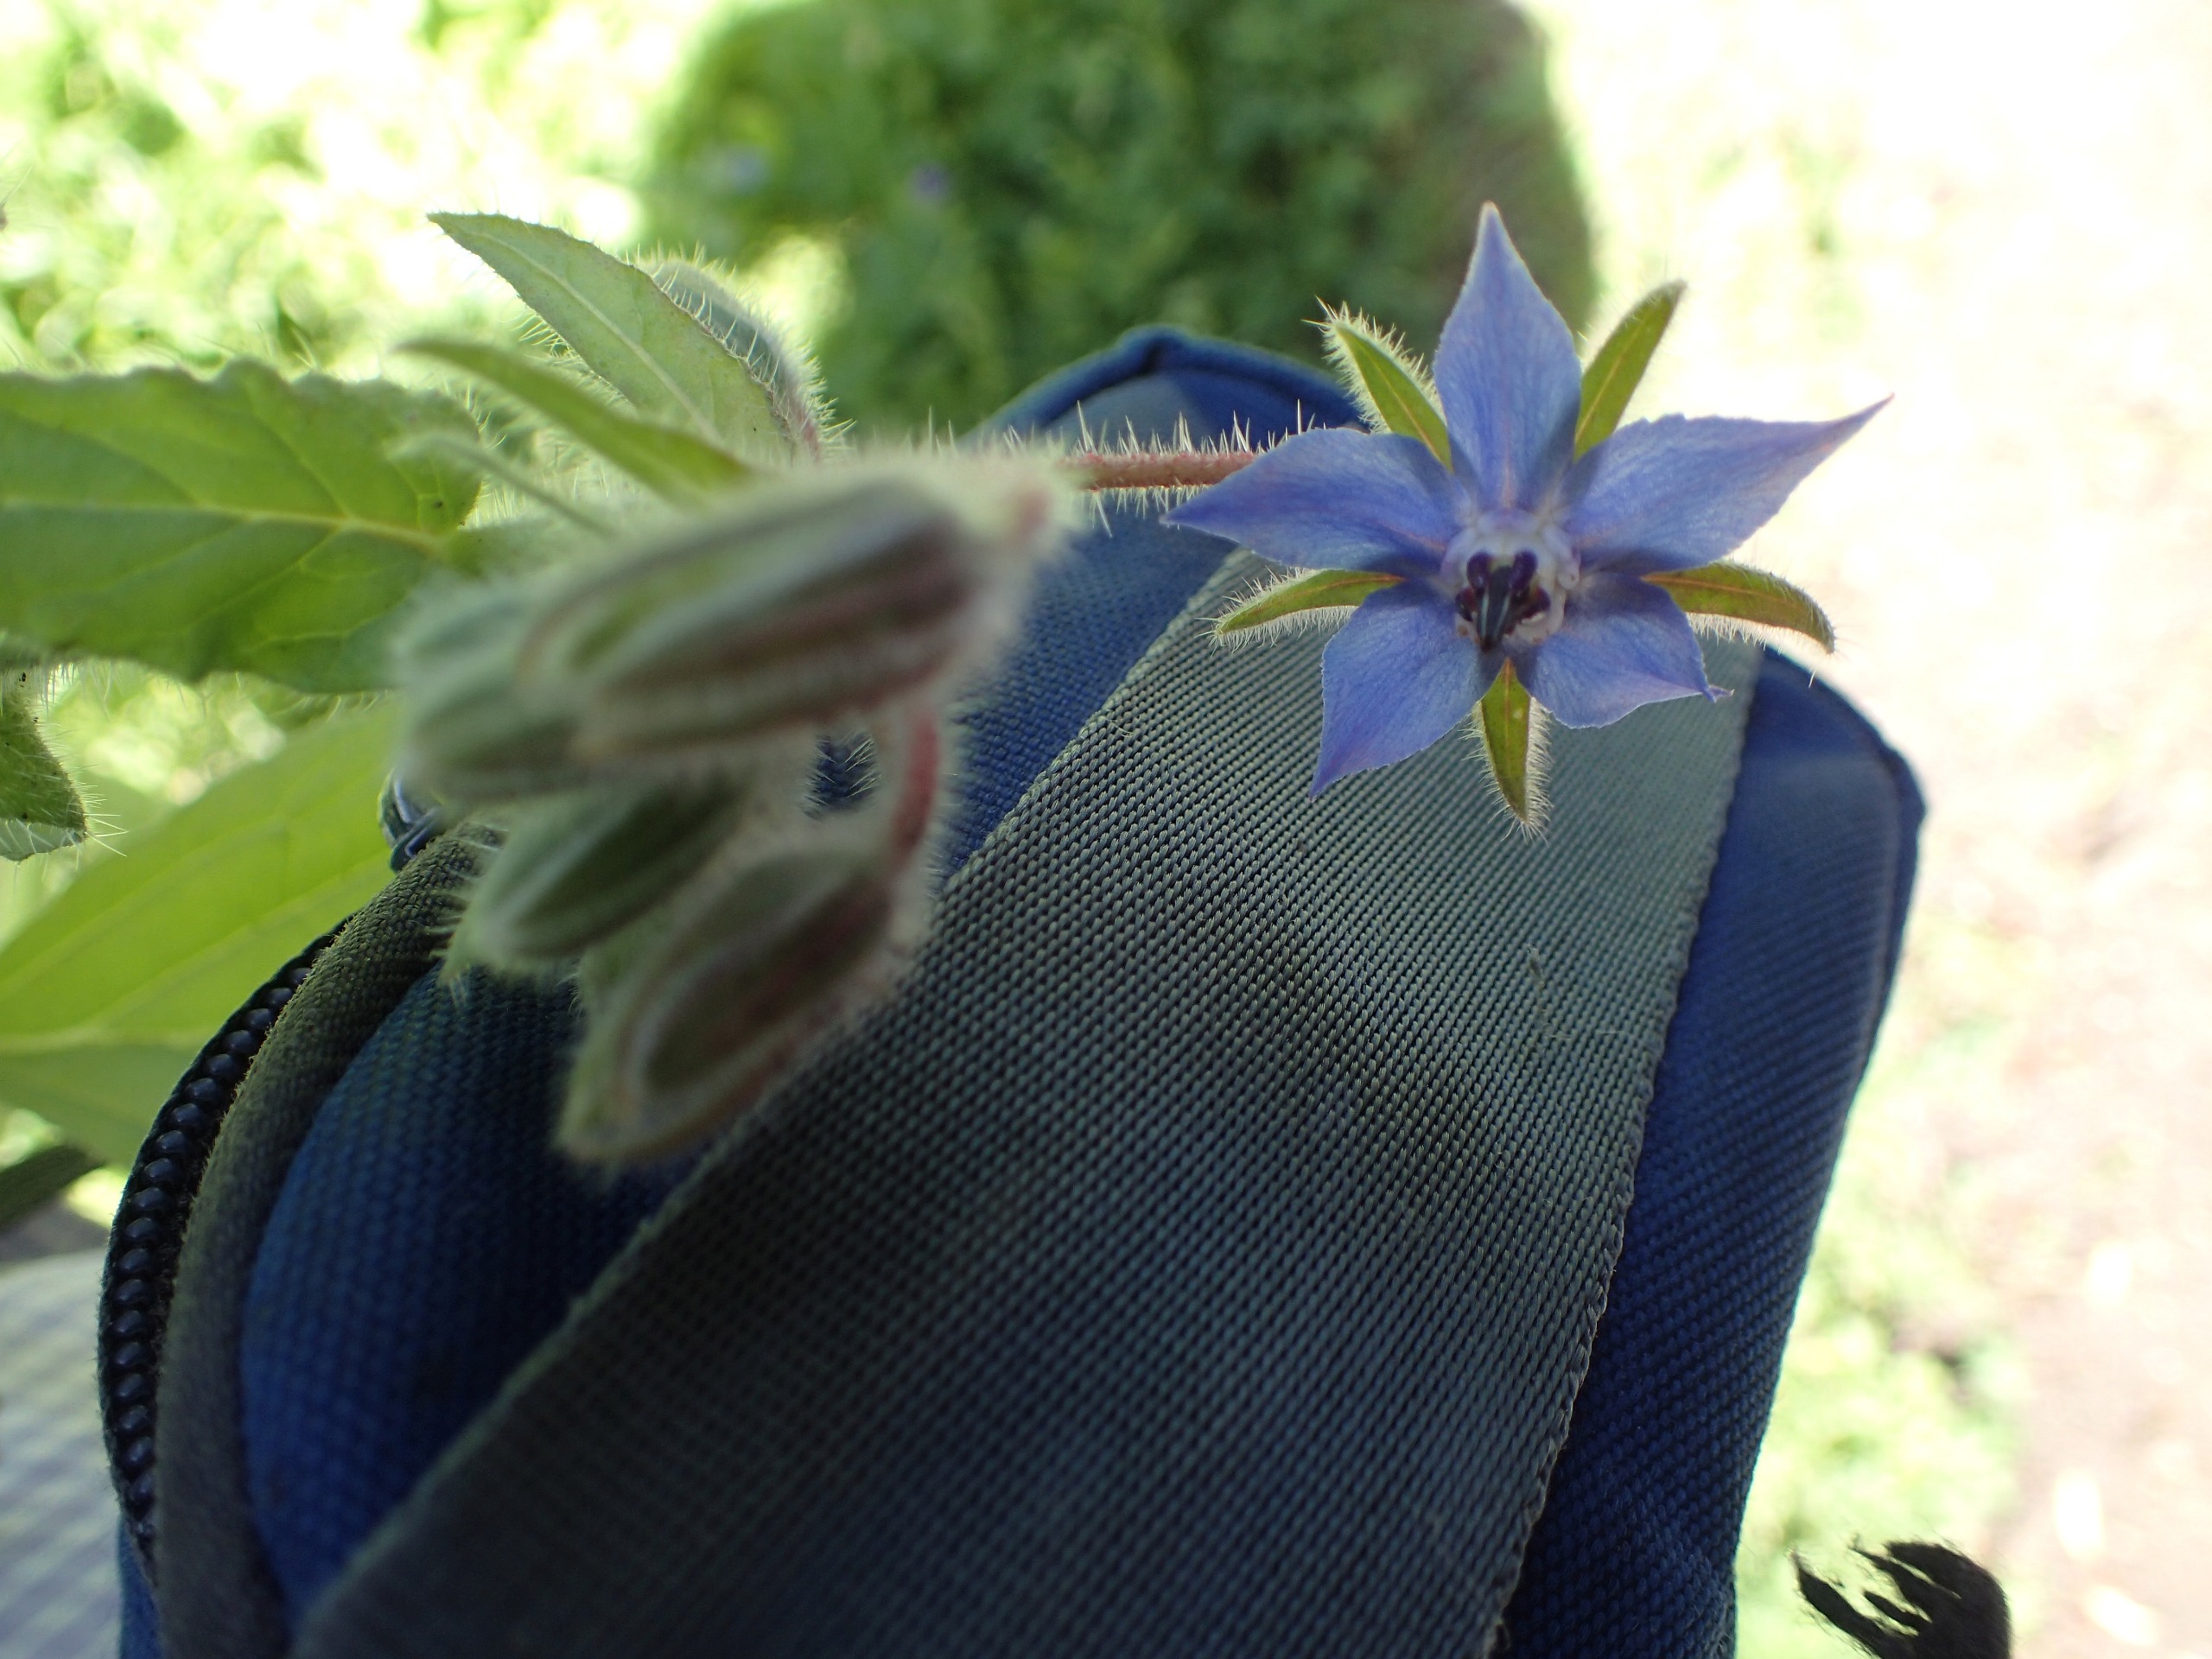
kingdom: Plantae
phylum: Tracheophyta
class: Magnoliopsida
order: Boraginales
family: Boraginaceae
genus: Borago
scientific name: Borago officinalis
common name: Hjulkrone
